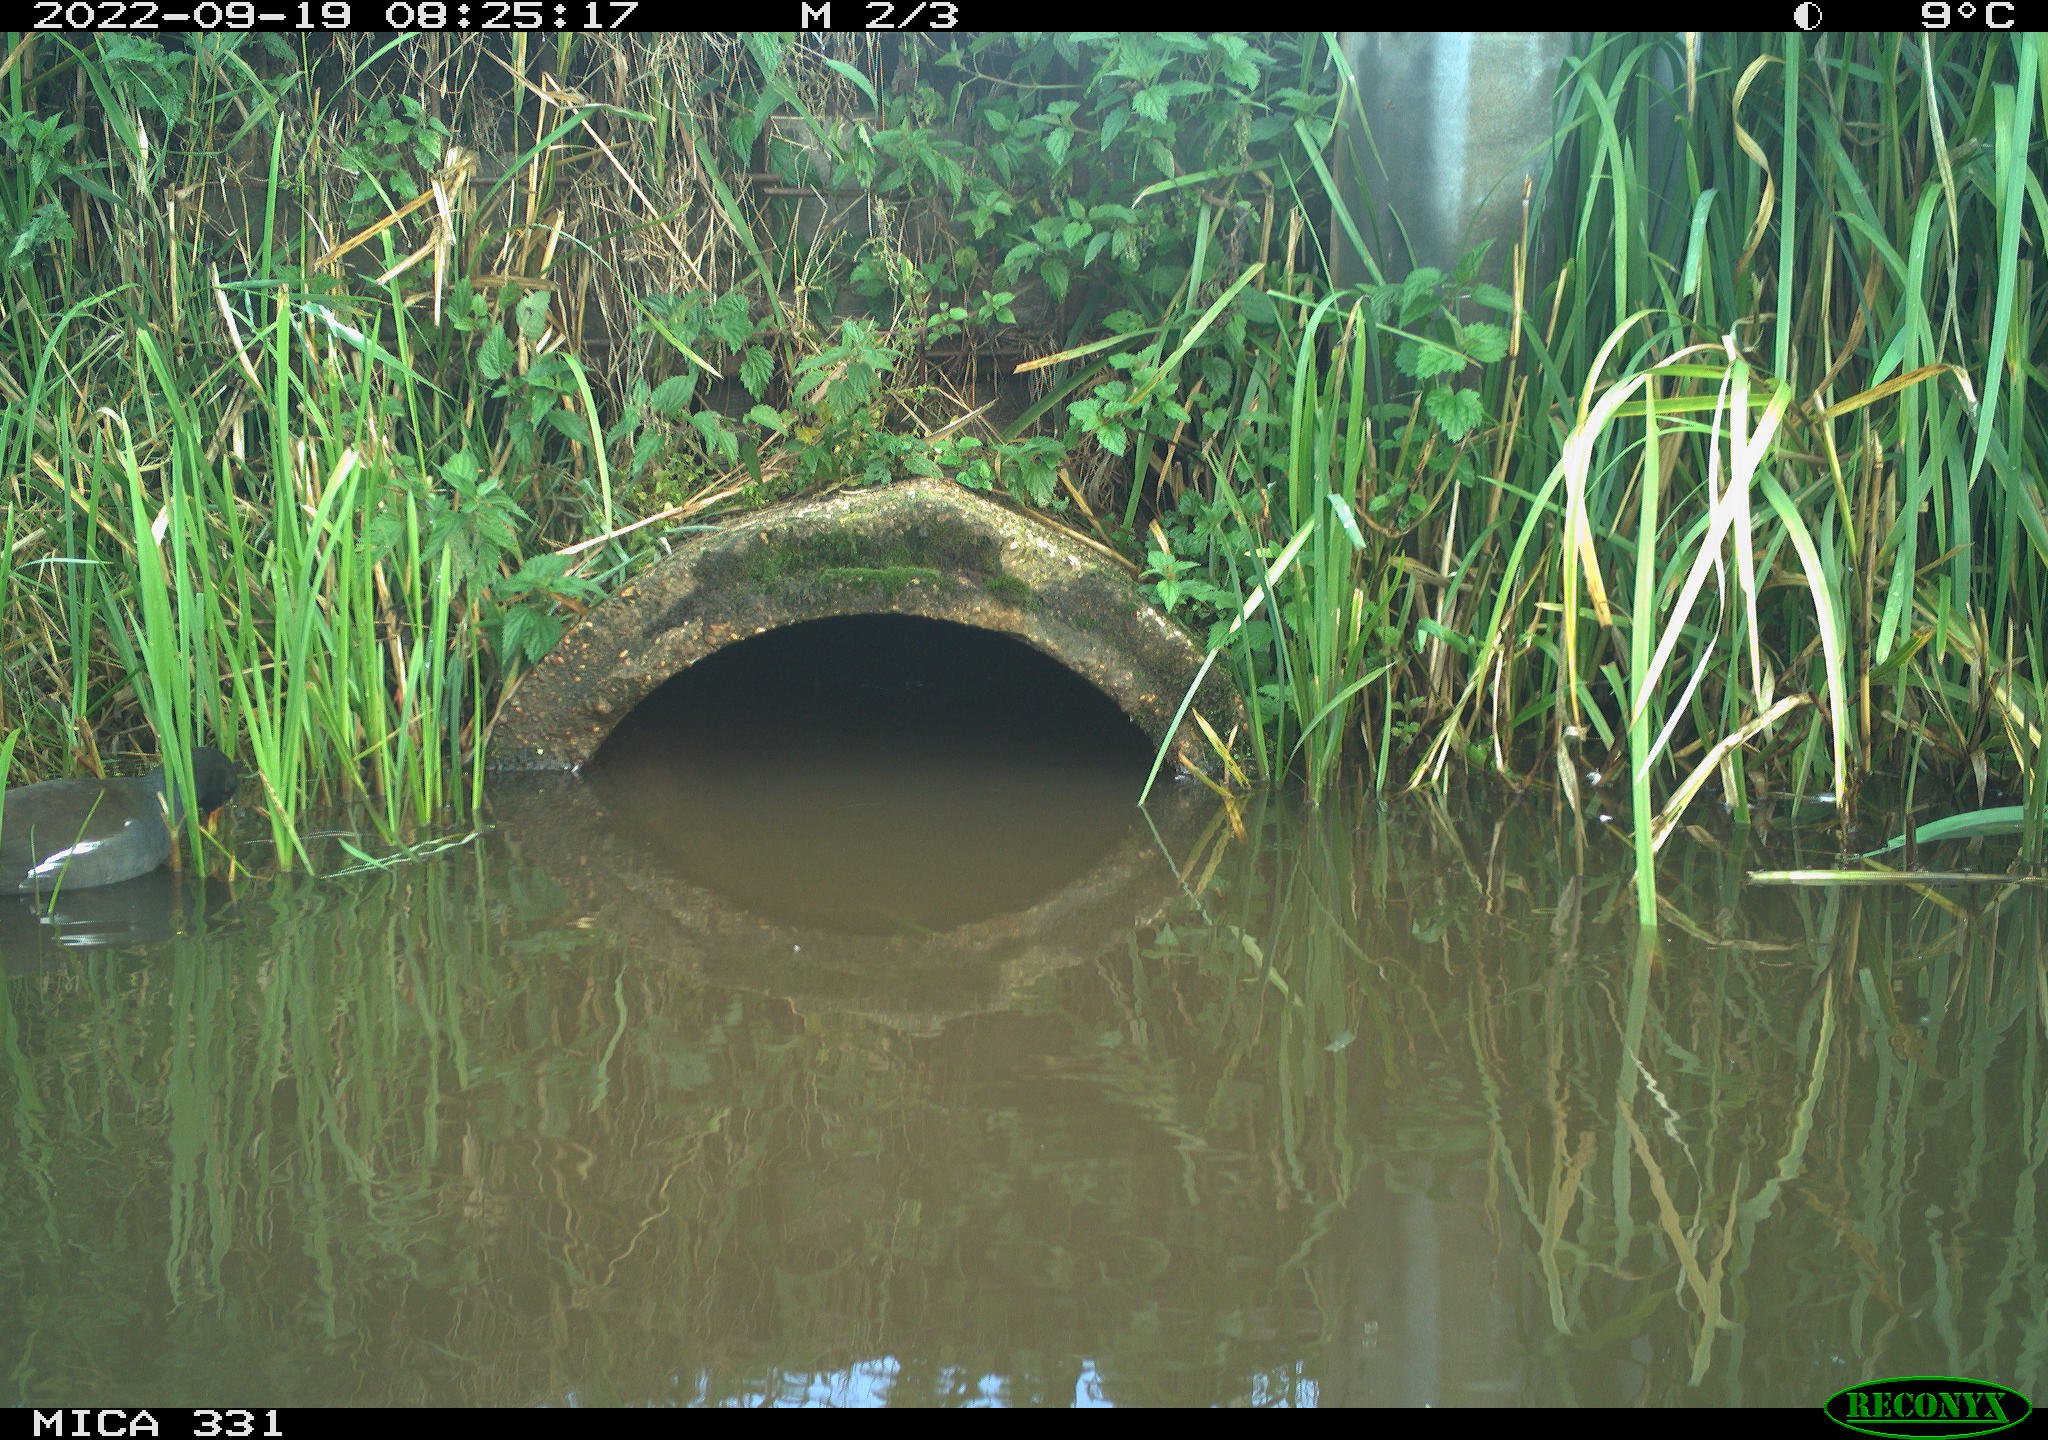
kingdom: Animalia
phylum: Chordata
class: Aves
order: Gruiformes
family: Rallidae
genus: Gallinula
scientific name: Gallinula chloropus
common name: Common moorhen
